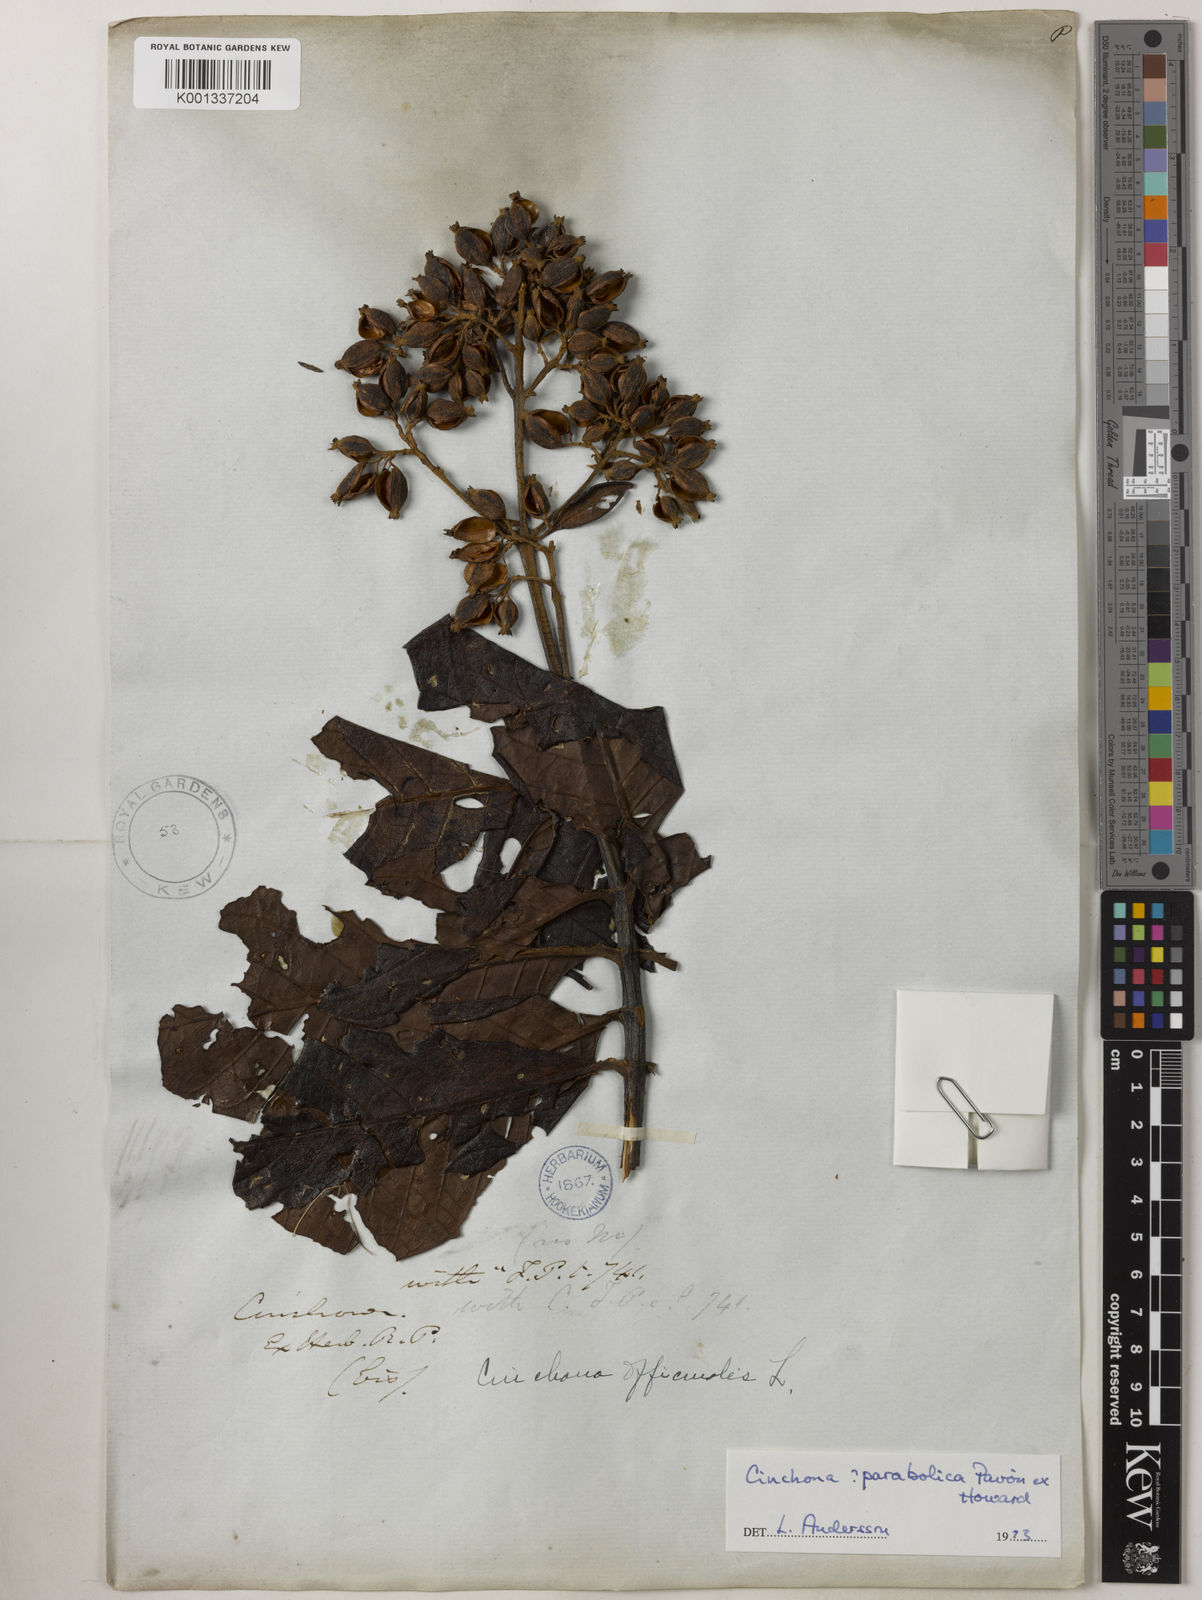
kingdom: Plantae
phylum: Tracheophyta
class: Magnoliopsida
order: Gentianales
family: Rubiaceae
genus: Cinchona
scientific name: Cinchona parabolica
